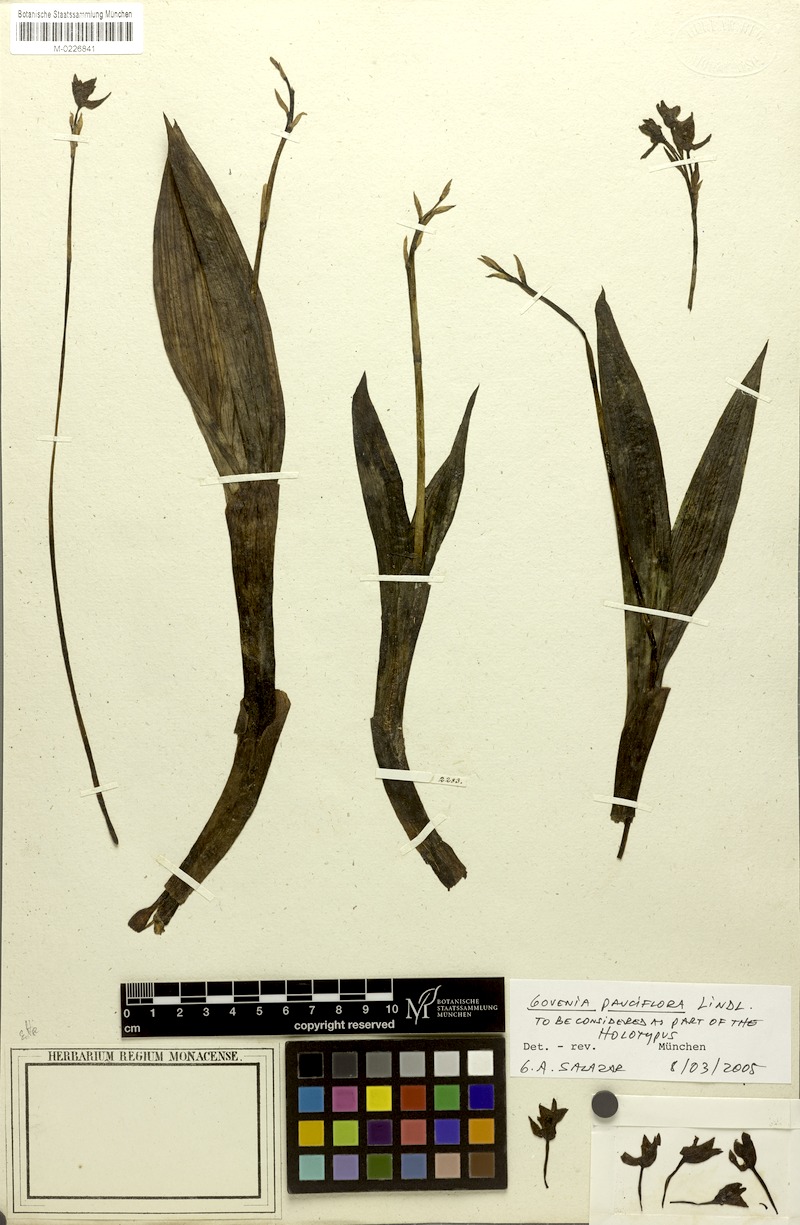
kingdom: Plantae
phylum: Tracheophyta
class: Liliopsida
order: Asparagales
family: Orchidaceae
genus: Govenia
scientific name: Govenia purpusii
